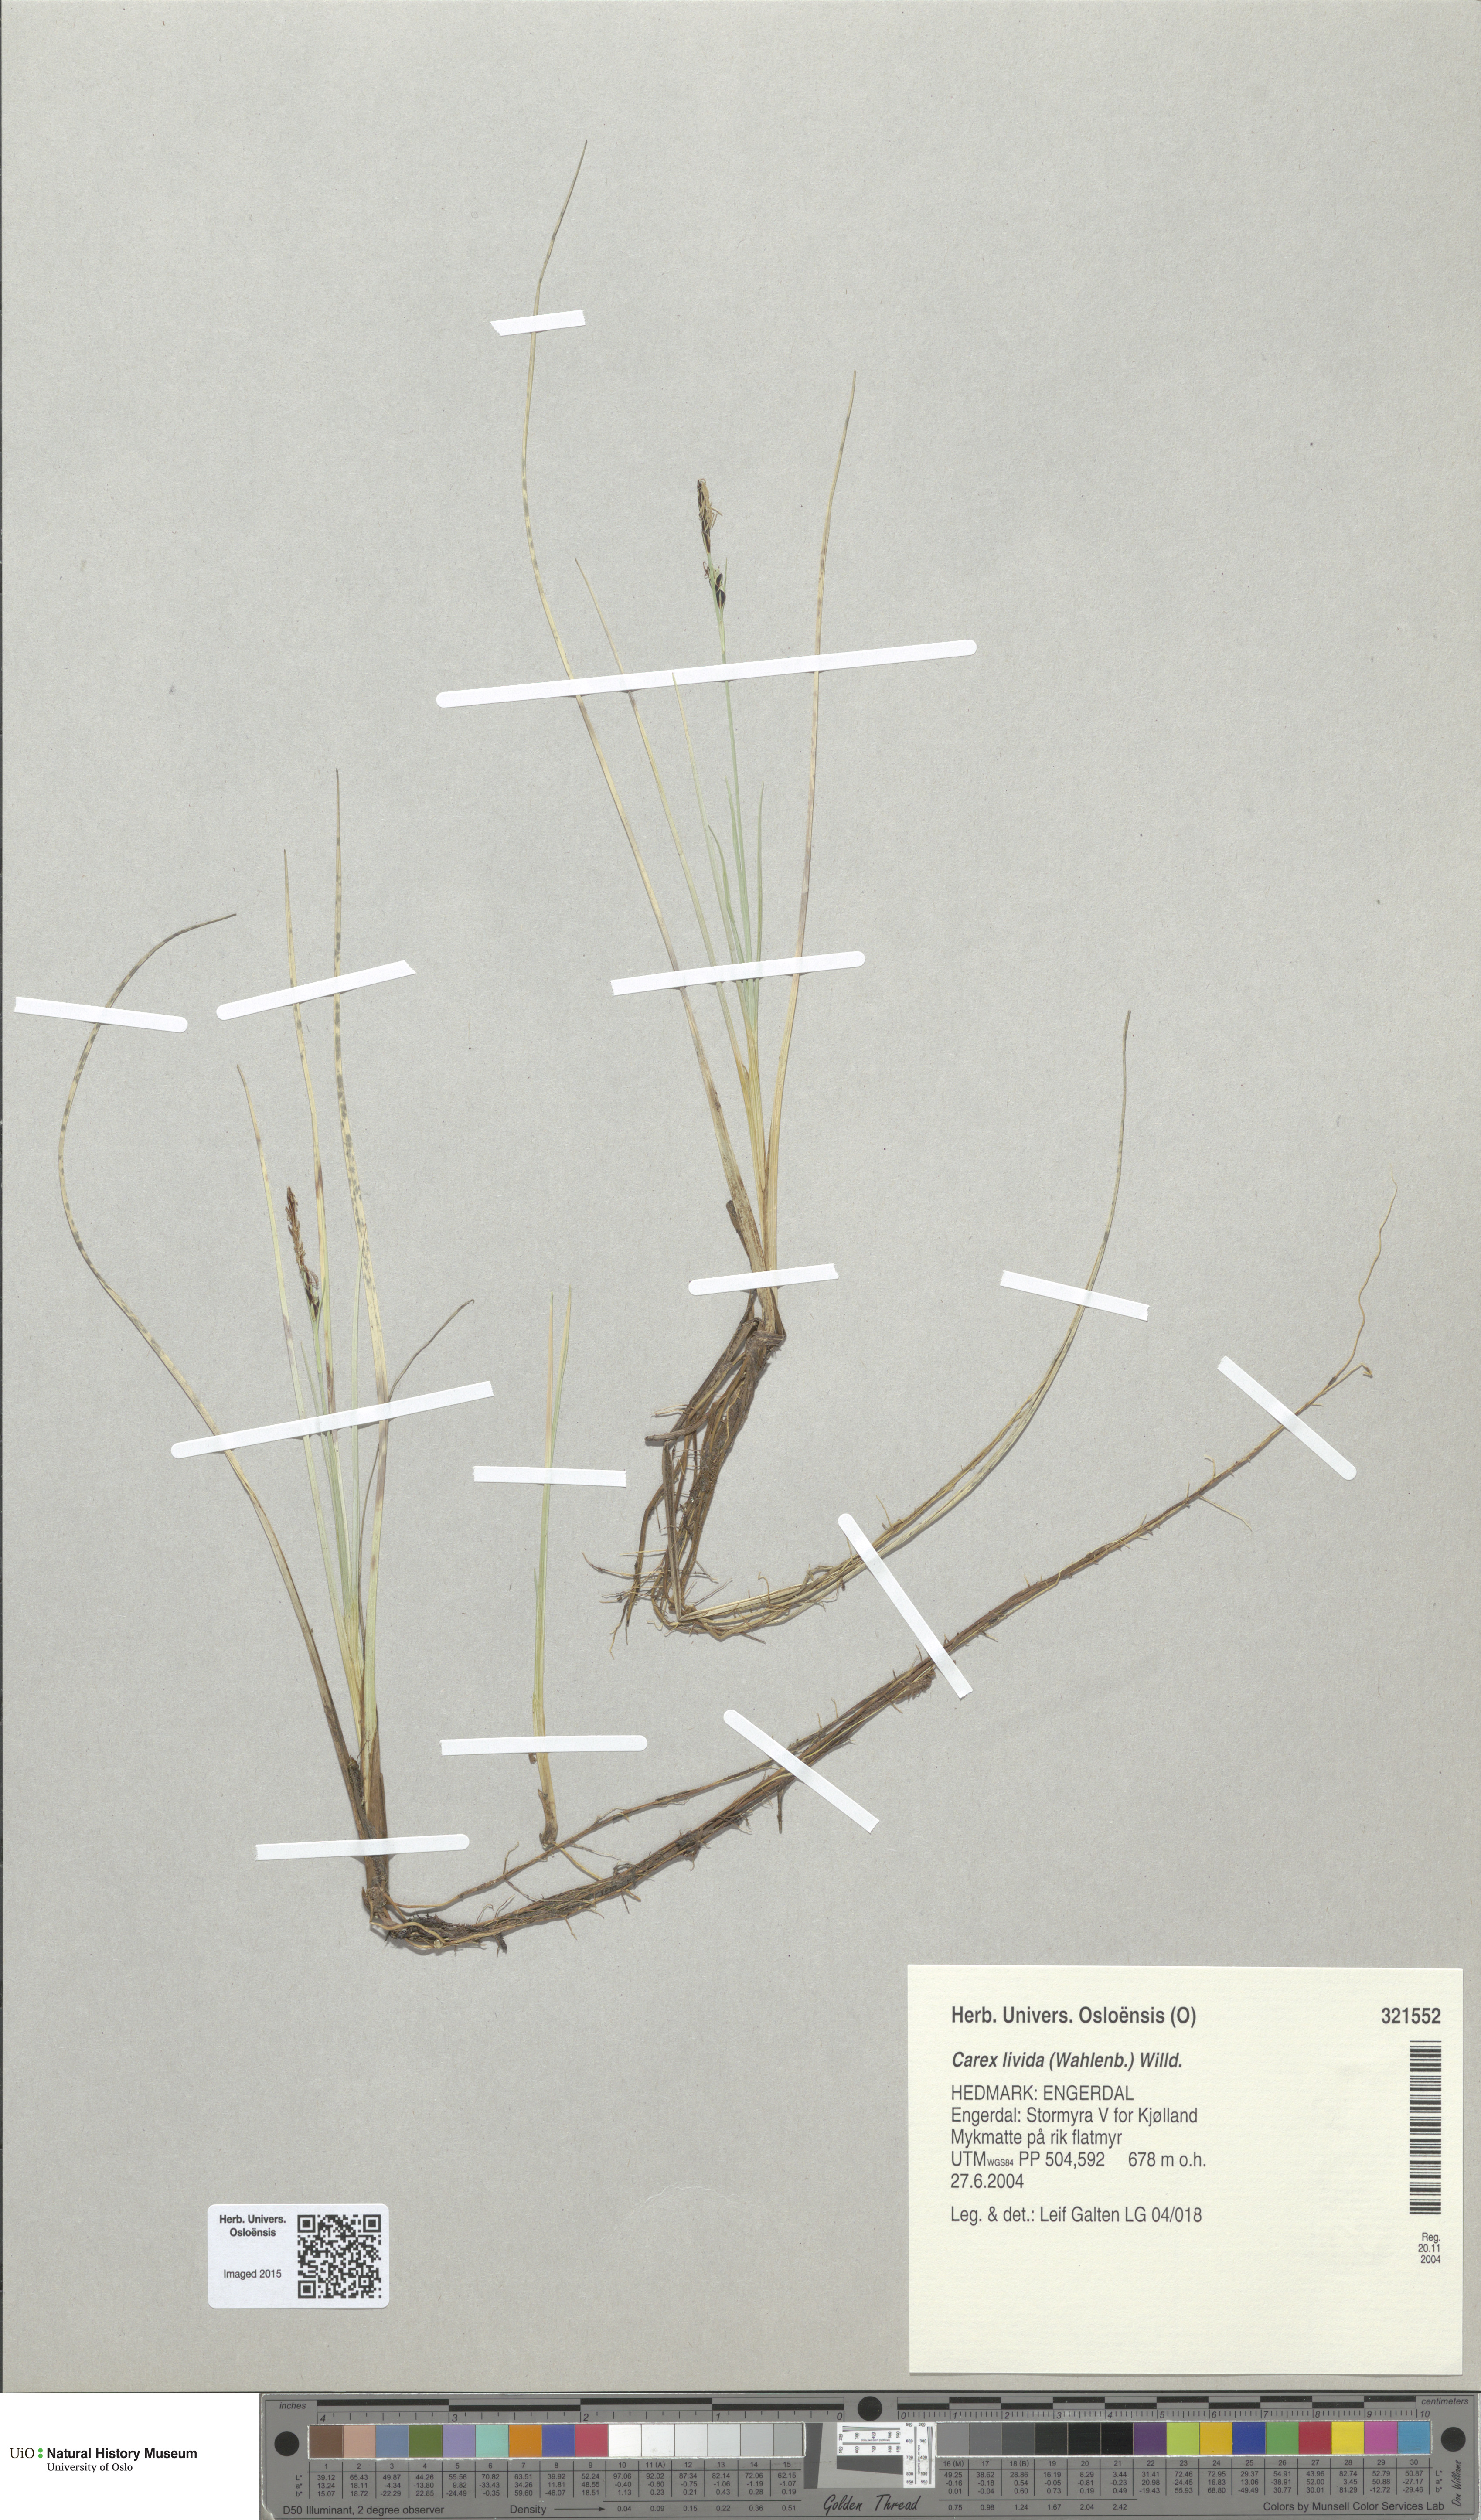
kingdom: Plantae
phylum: Tracheophyta
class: Liliopsida
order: Poales
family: Cyperaceae
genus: Carex
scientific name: Carex livida
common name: Livid sedge
